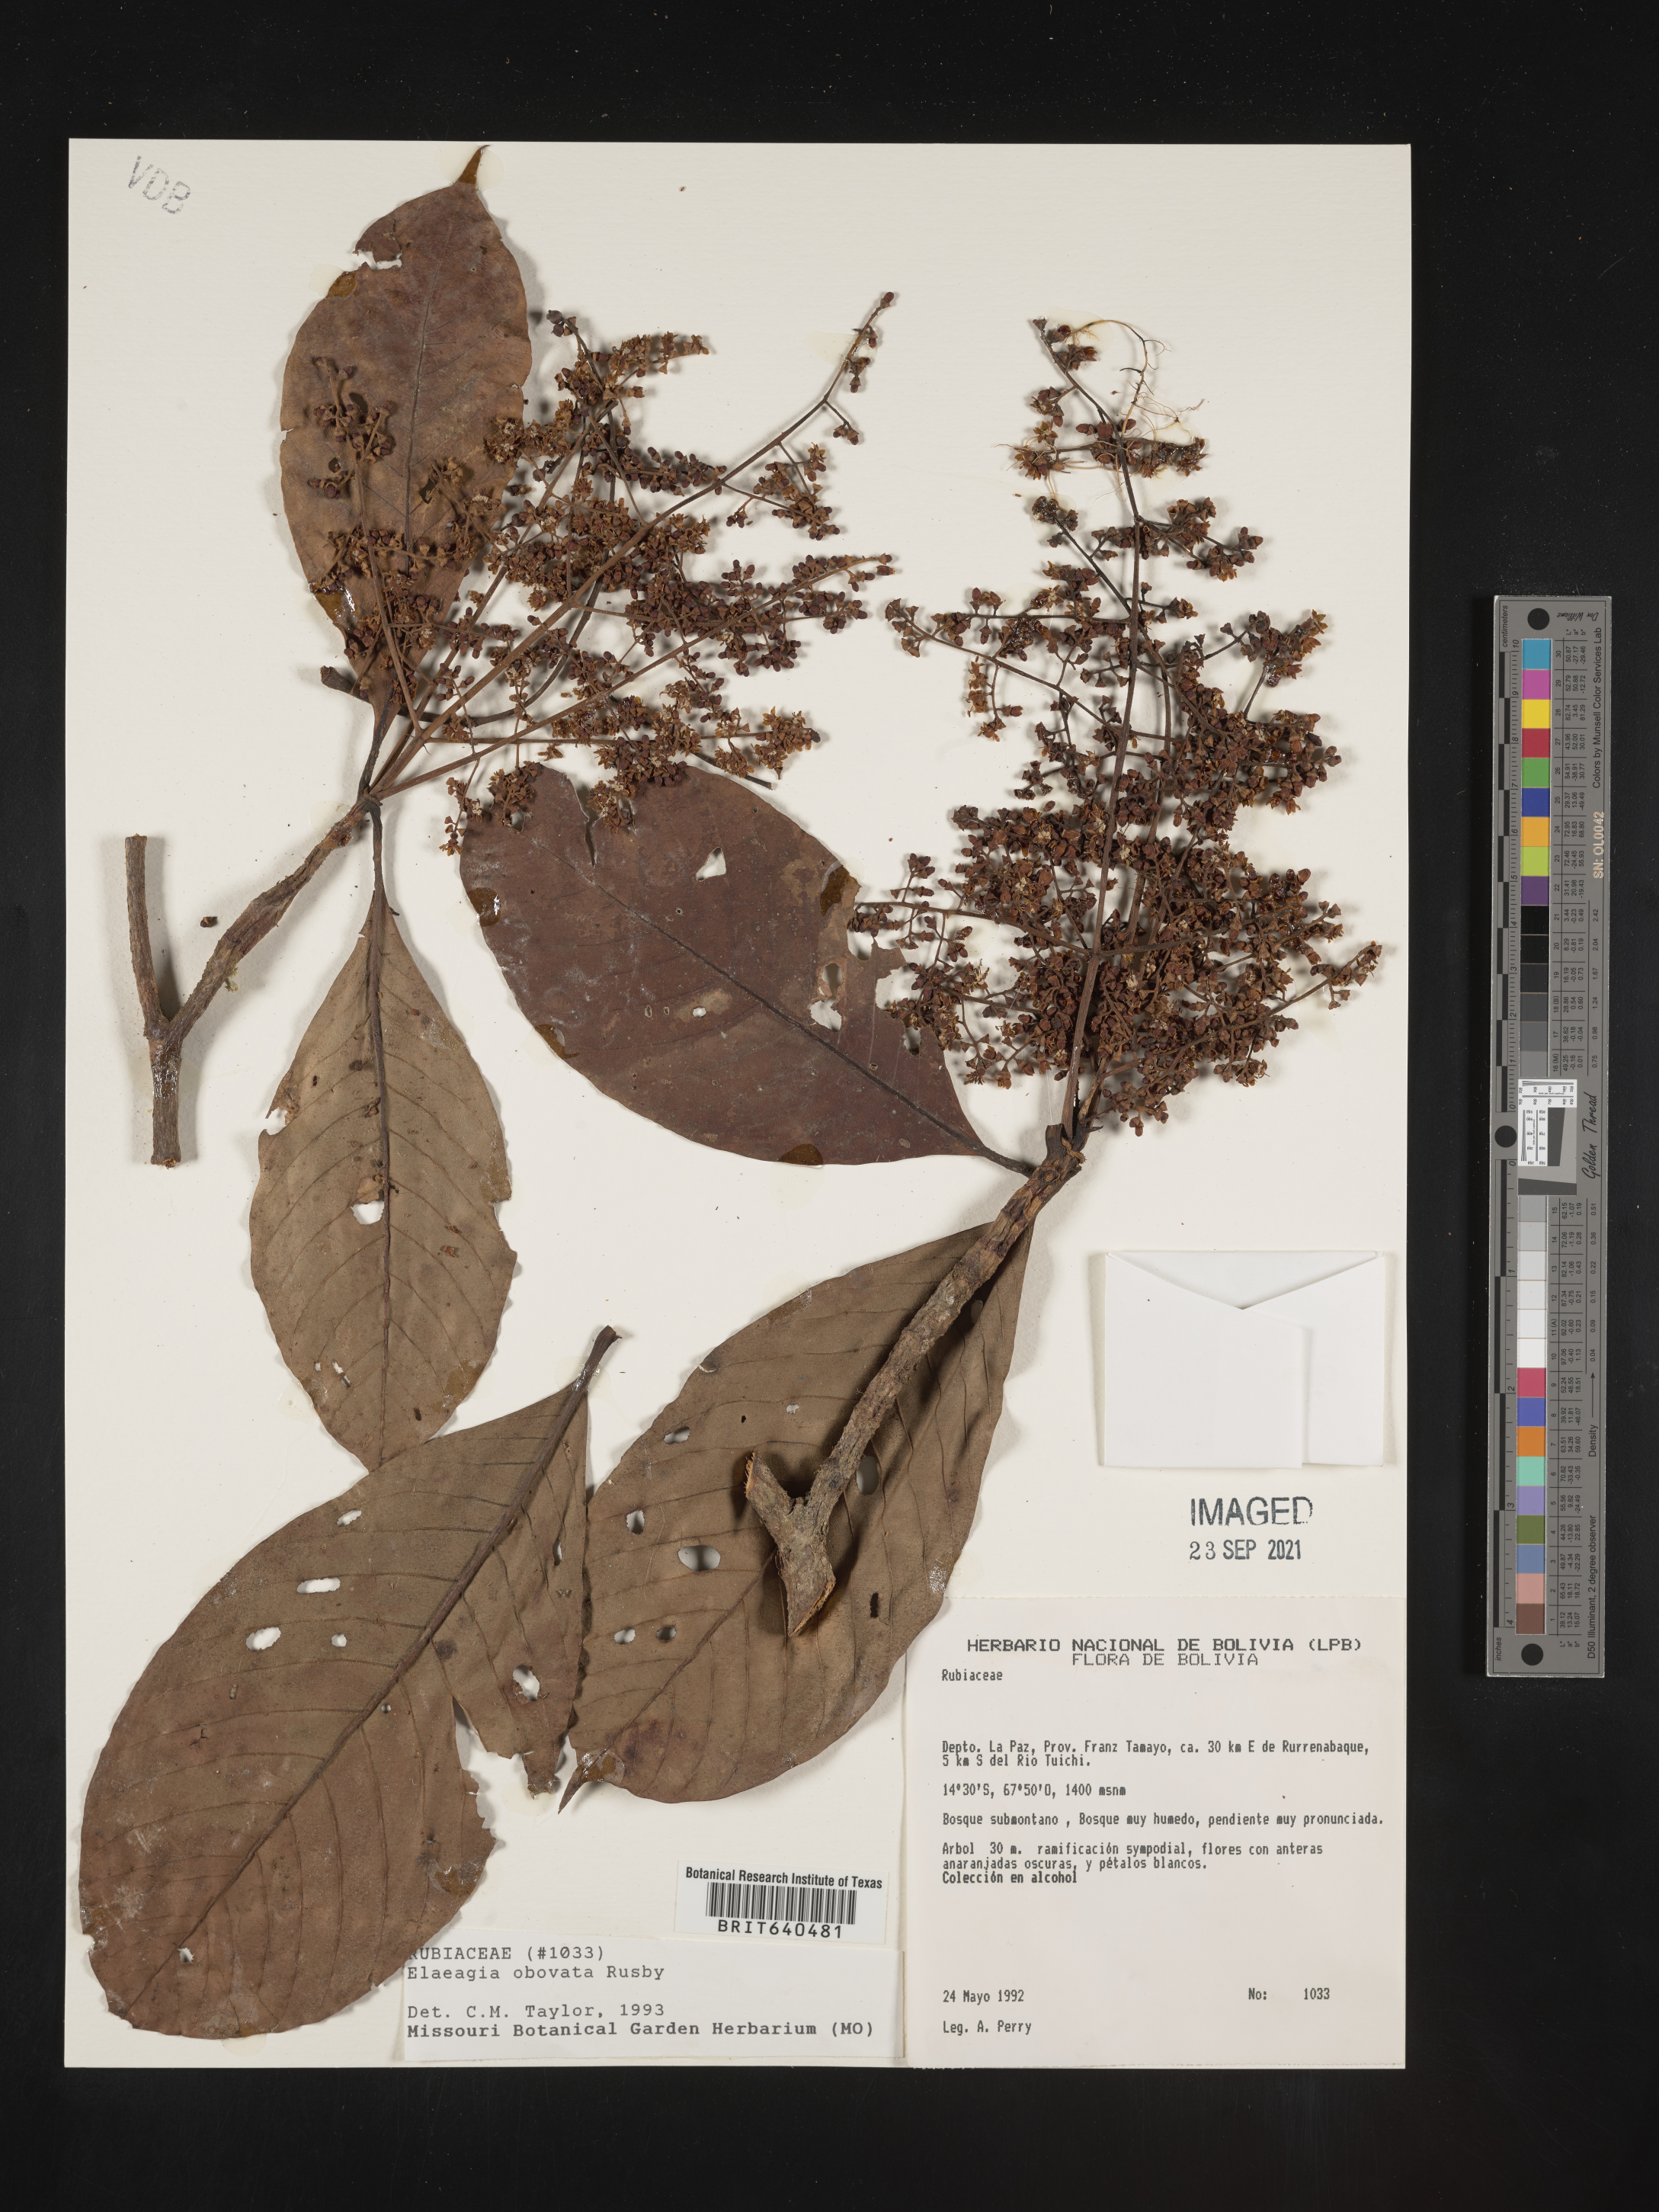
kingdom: Plantae
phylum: Tracheophyta
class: Magnoliopsida
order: Gentianales
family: Rubiaceae
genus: Elaeagia
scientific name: Elaeagia
